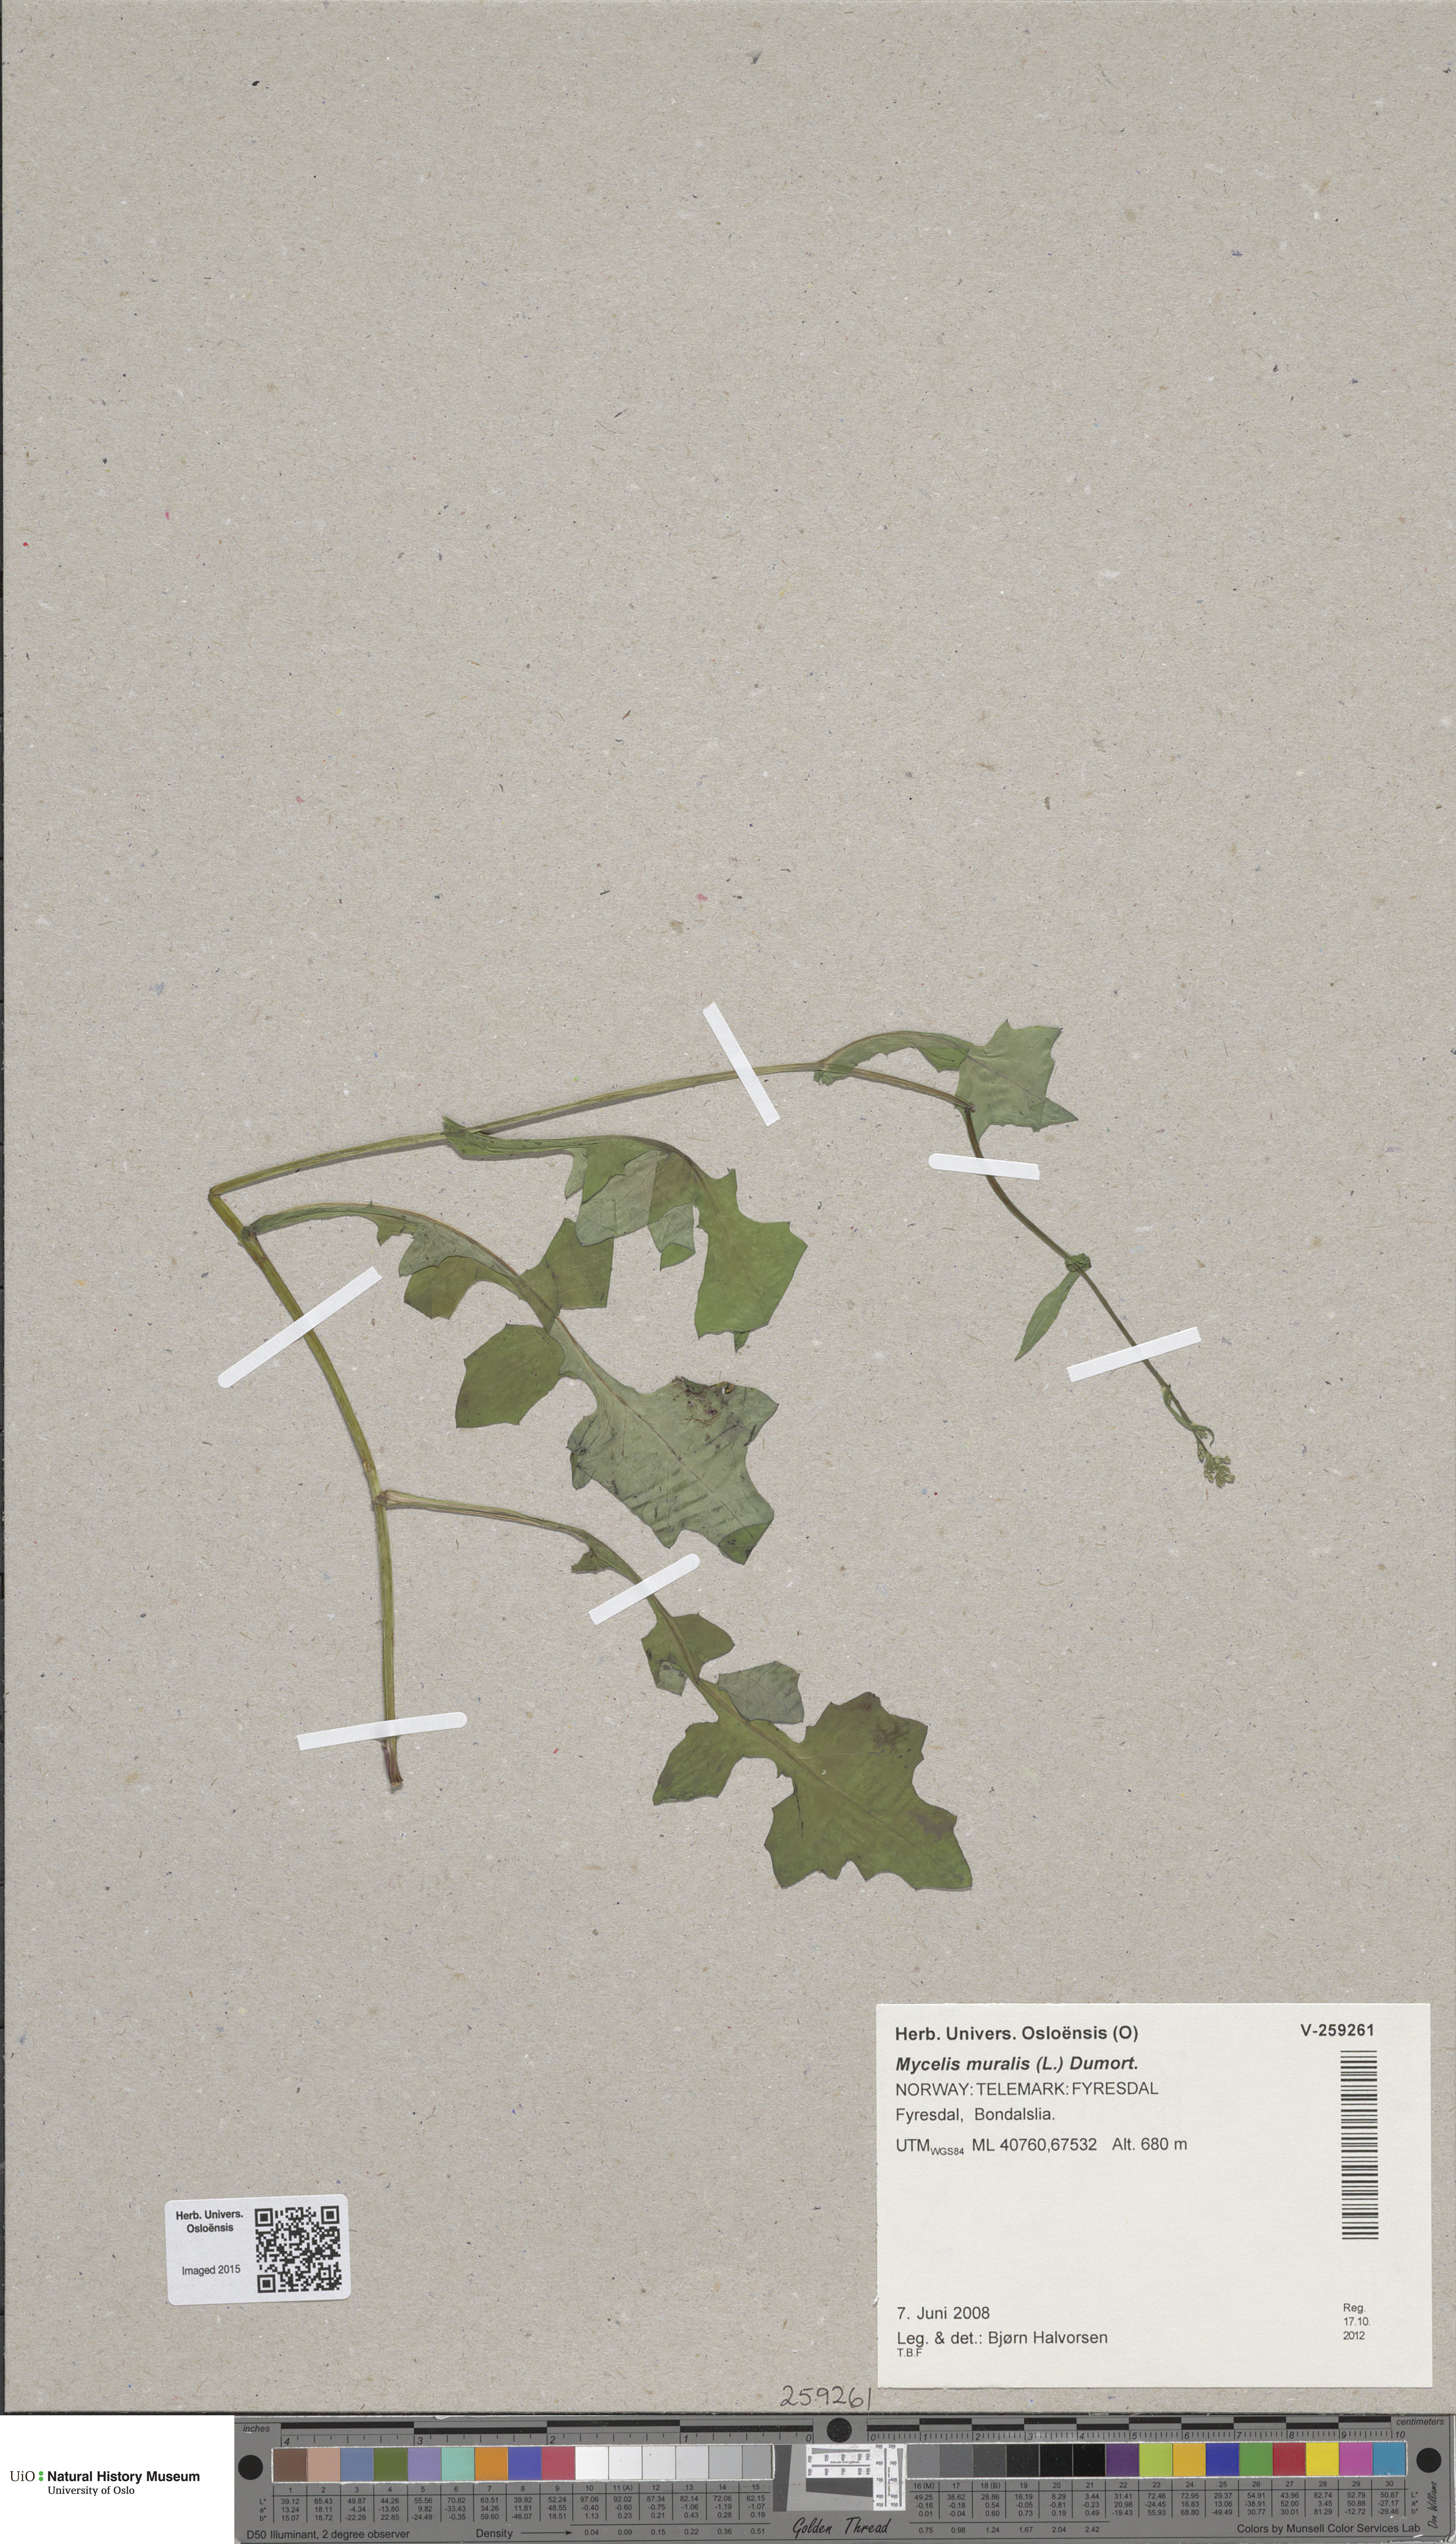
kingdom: Plantae
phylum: Tracheophyta
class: Magnoliopsida
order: Asterales
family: Asteraceae
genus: Mycelis
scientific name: Mycelis muralis
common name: Wall lettuce
